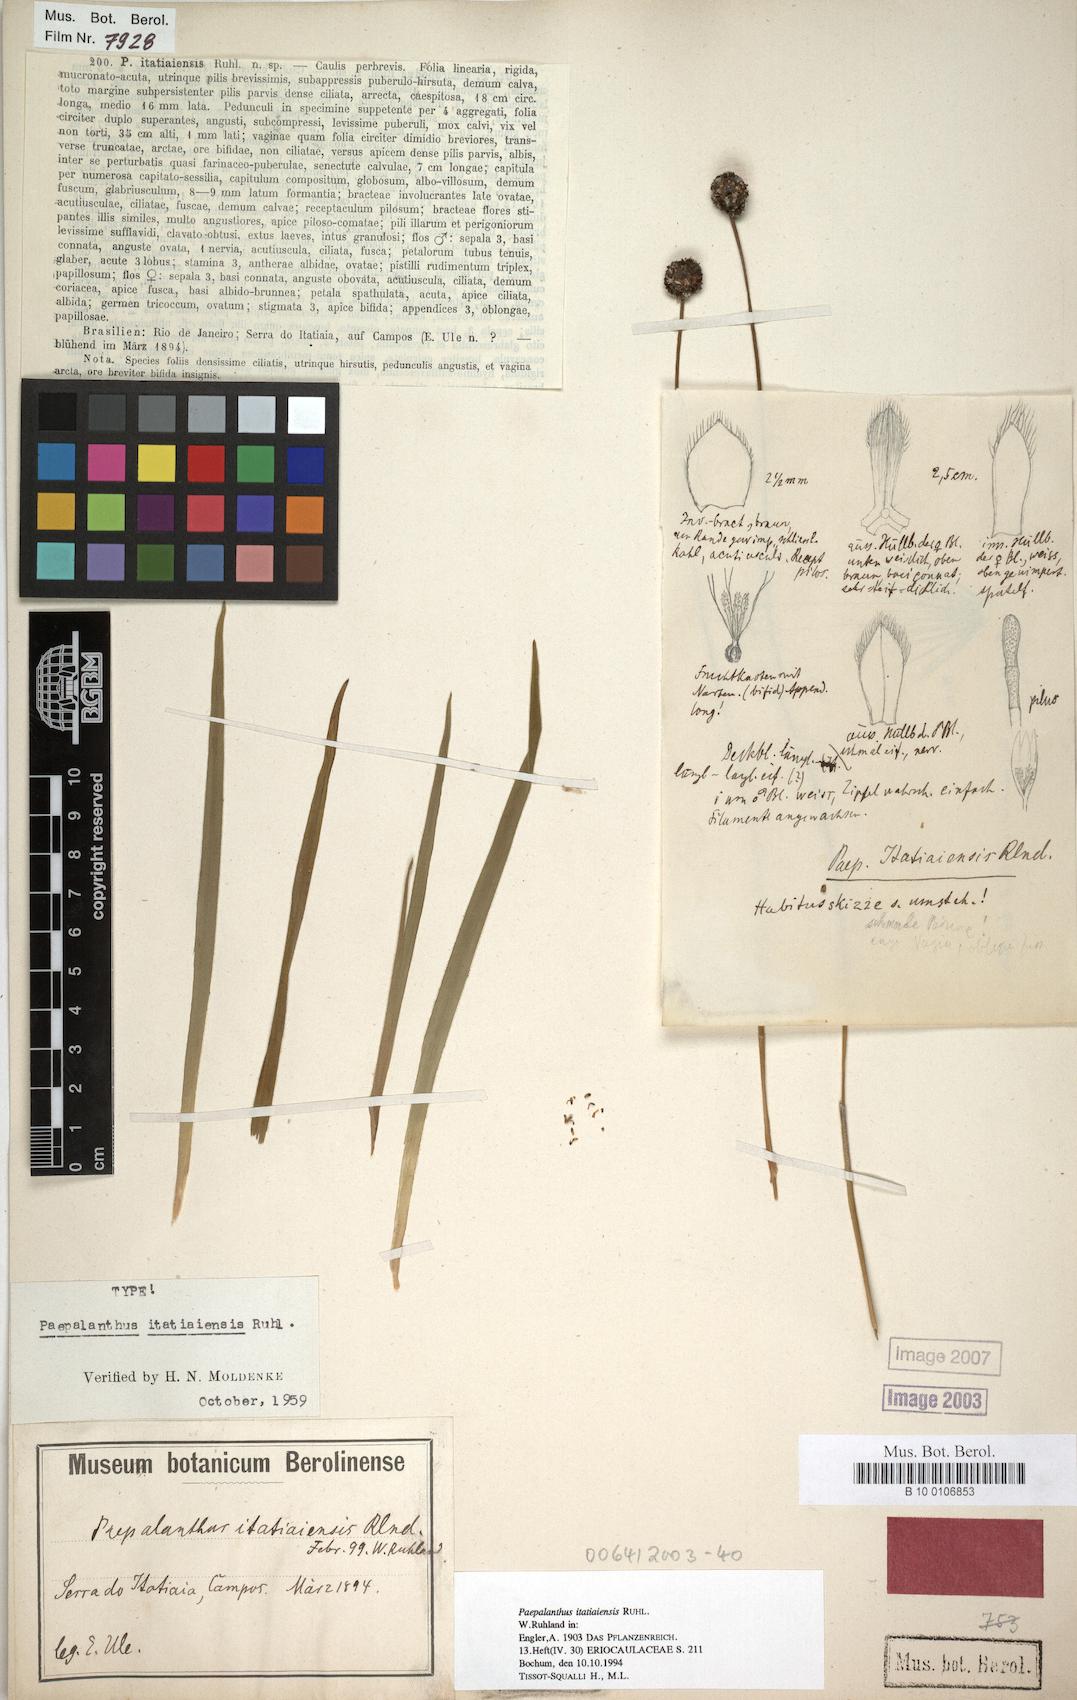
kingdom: Plantae
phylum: Tracheophyta
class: Liliopsida
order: Poales
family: Eriocaulaceae
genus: Paepalanthus
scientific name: Paepalanthus itatiaiensis
